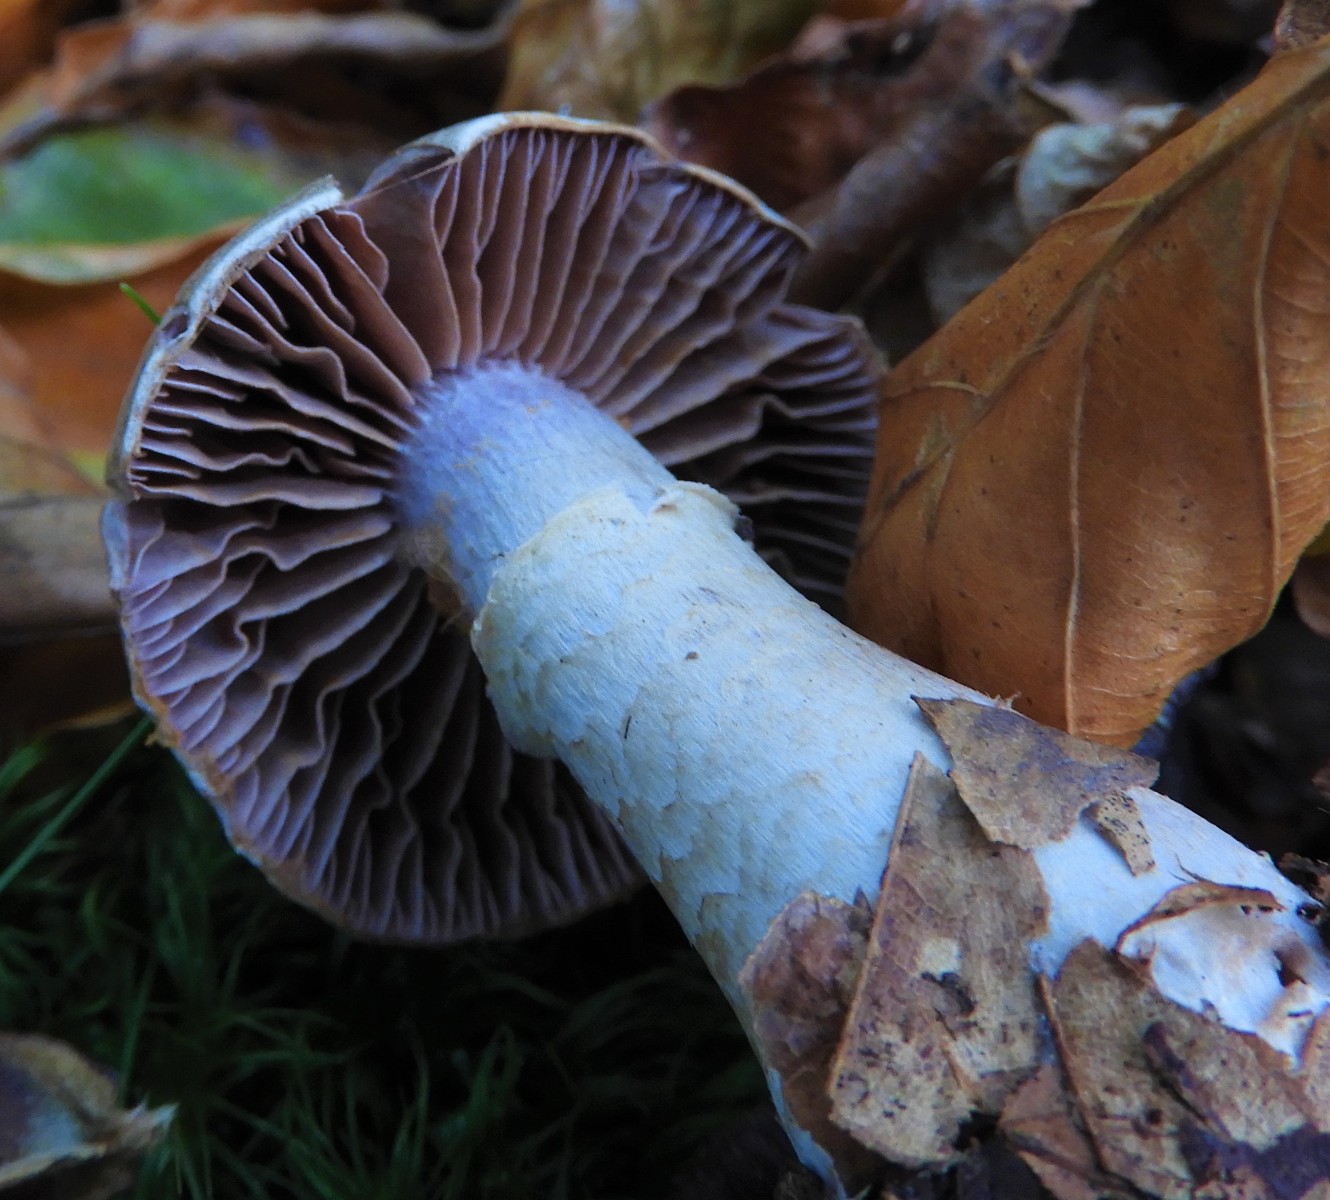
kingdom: Fungi
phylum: Basidiomycota
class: Agaricomycetes
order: Agaricales
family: Cortinariaceae
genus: Cortinarius
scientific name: Cortinarius torvus
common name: champignonagtig slørhat
